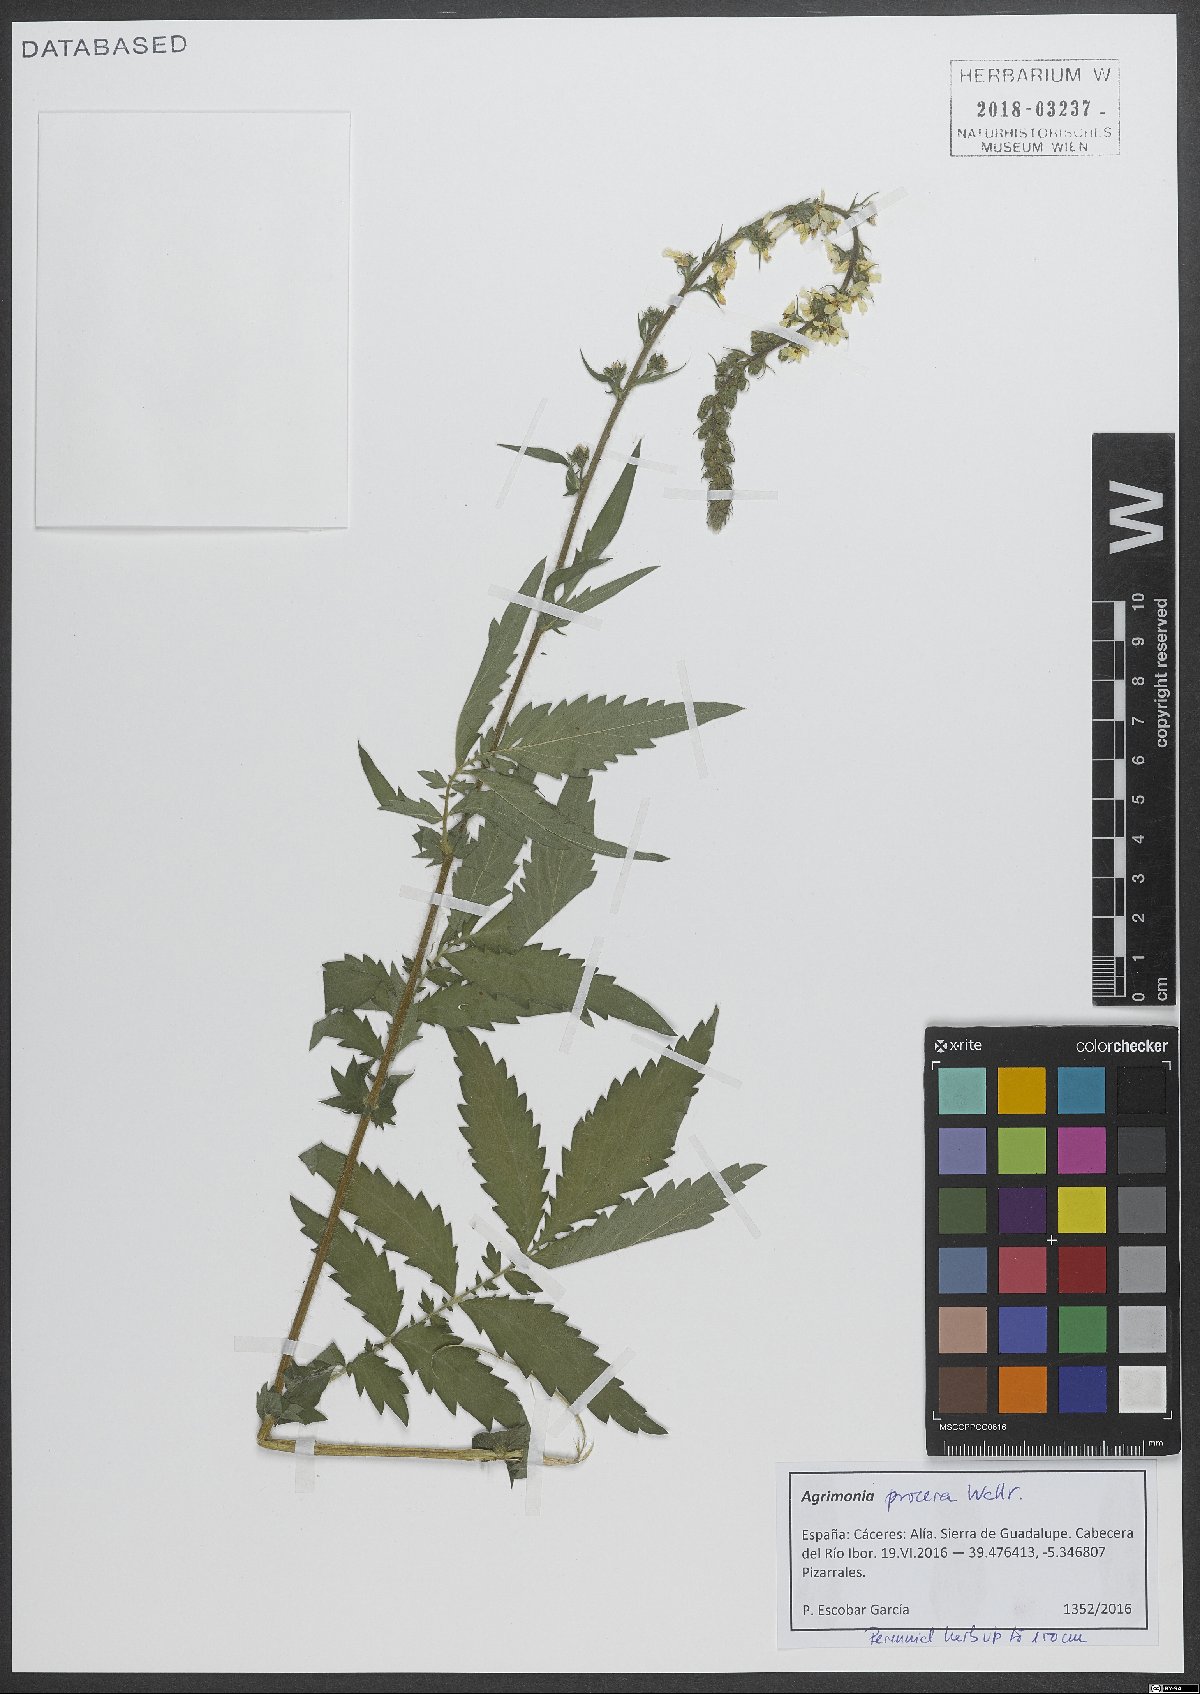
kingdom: Plantae
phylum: Tracheophyta
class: Magnoliopsida
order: Rosales
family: Rosaceae
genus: Agrimonia
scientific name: Agrimonia procera
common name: Fragrant agrimony
